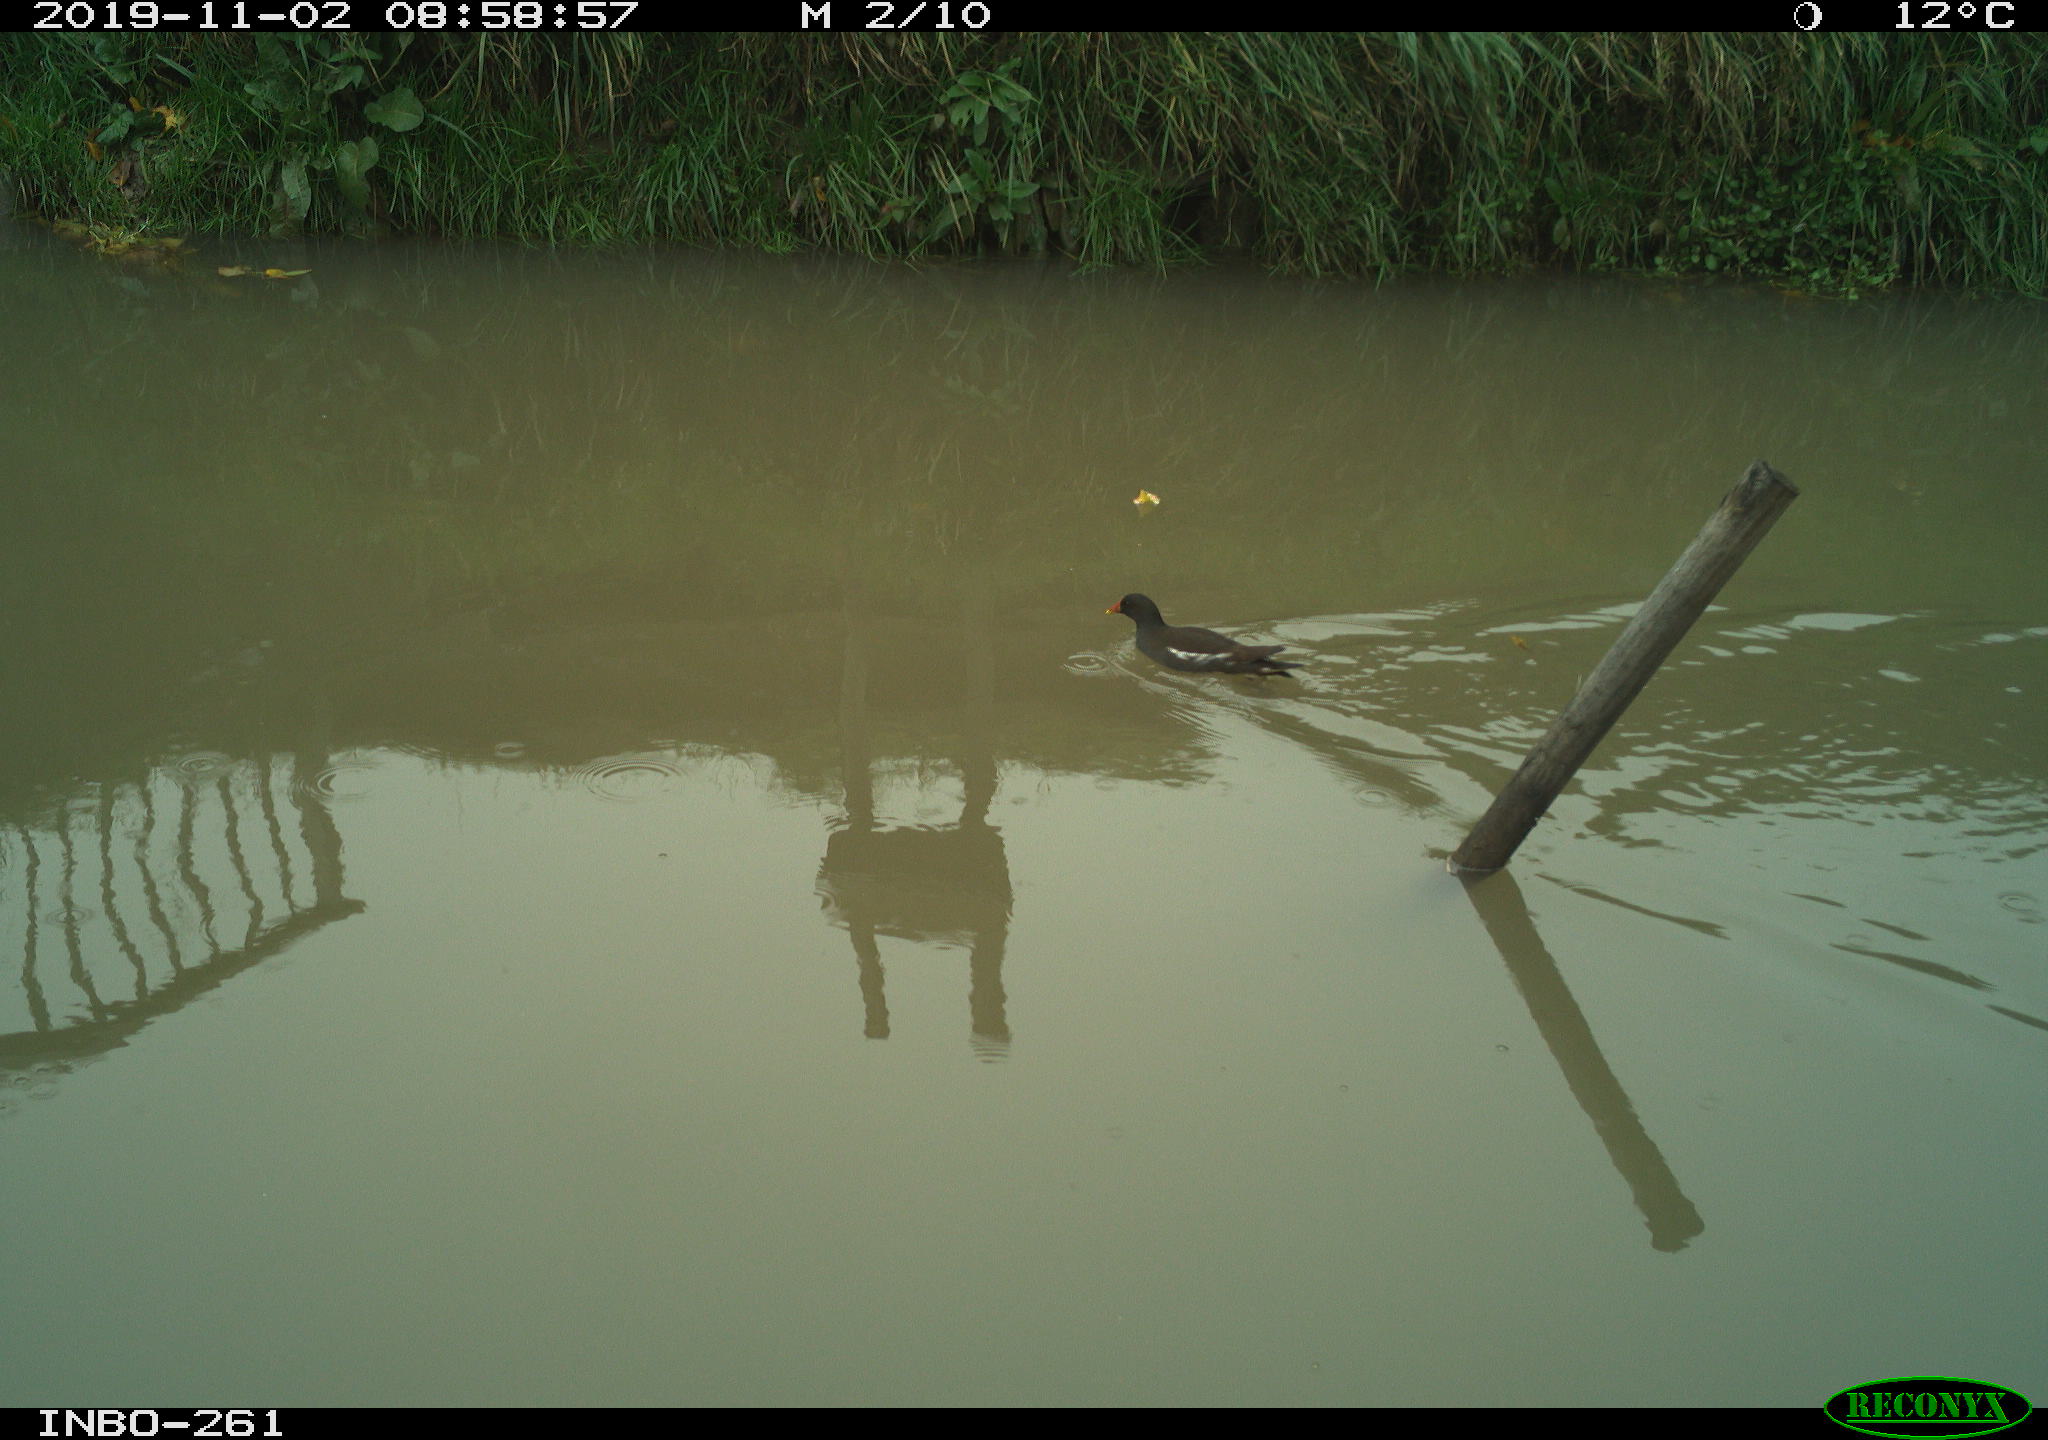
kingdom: Animalia
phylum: Chordata
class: Aves
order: Gruiformes
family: Rallidae
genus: Gallinula
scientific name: Gallinula chloropus
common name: Common moorhen
